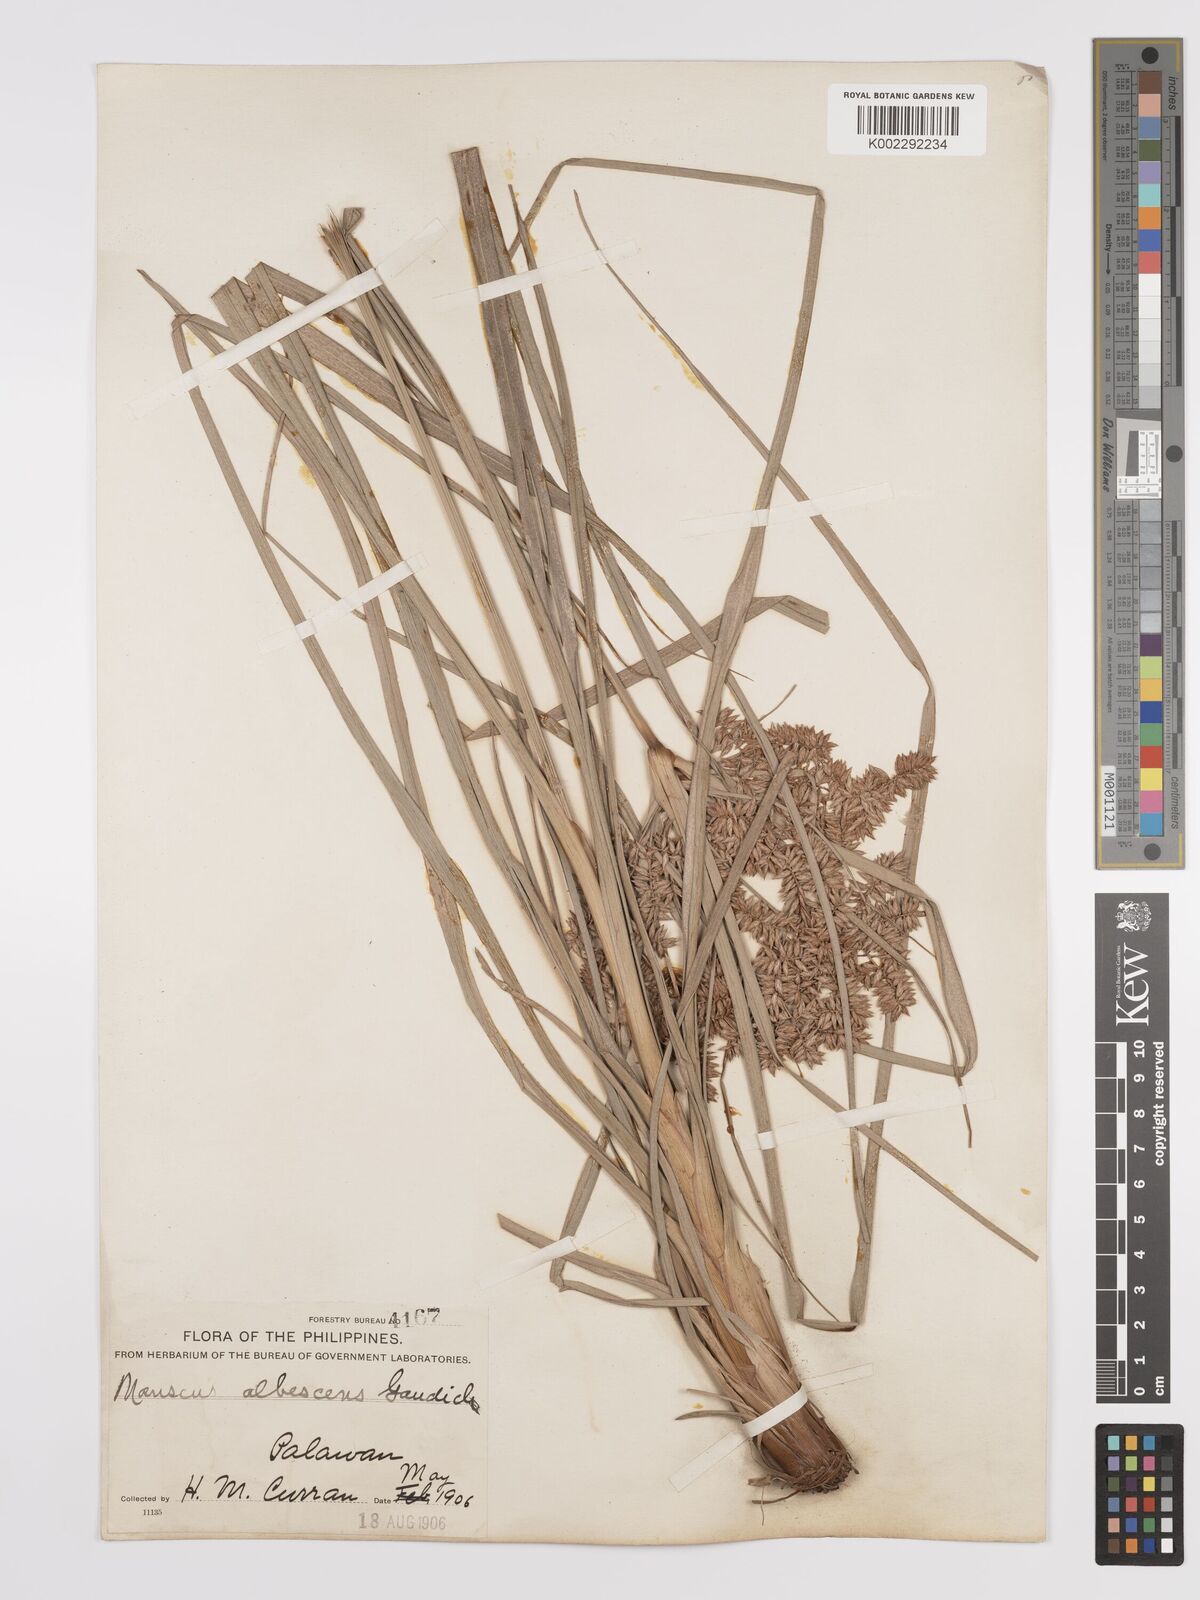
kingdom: Plantae
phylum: Tracheophyta
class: Liliopsida
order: Poales
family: Cyperaceae
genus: Cyperus
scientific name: Cyperus javanicus
